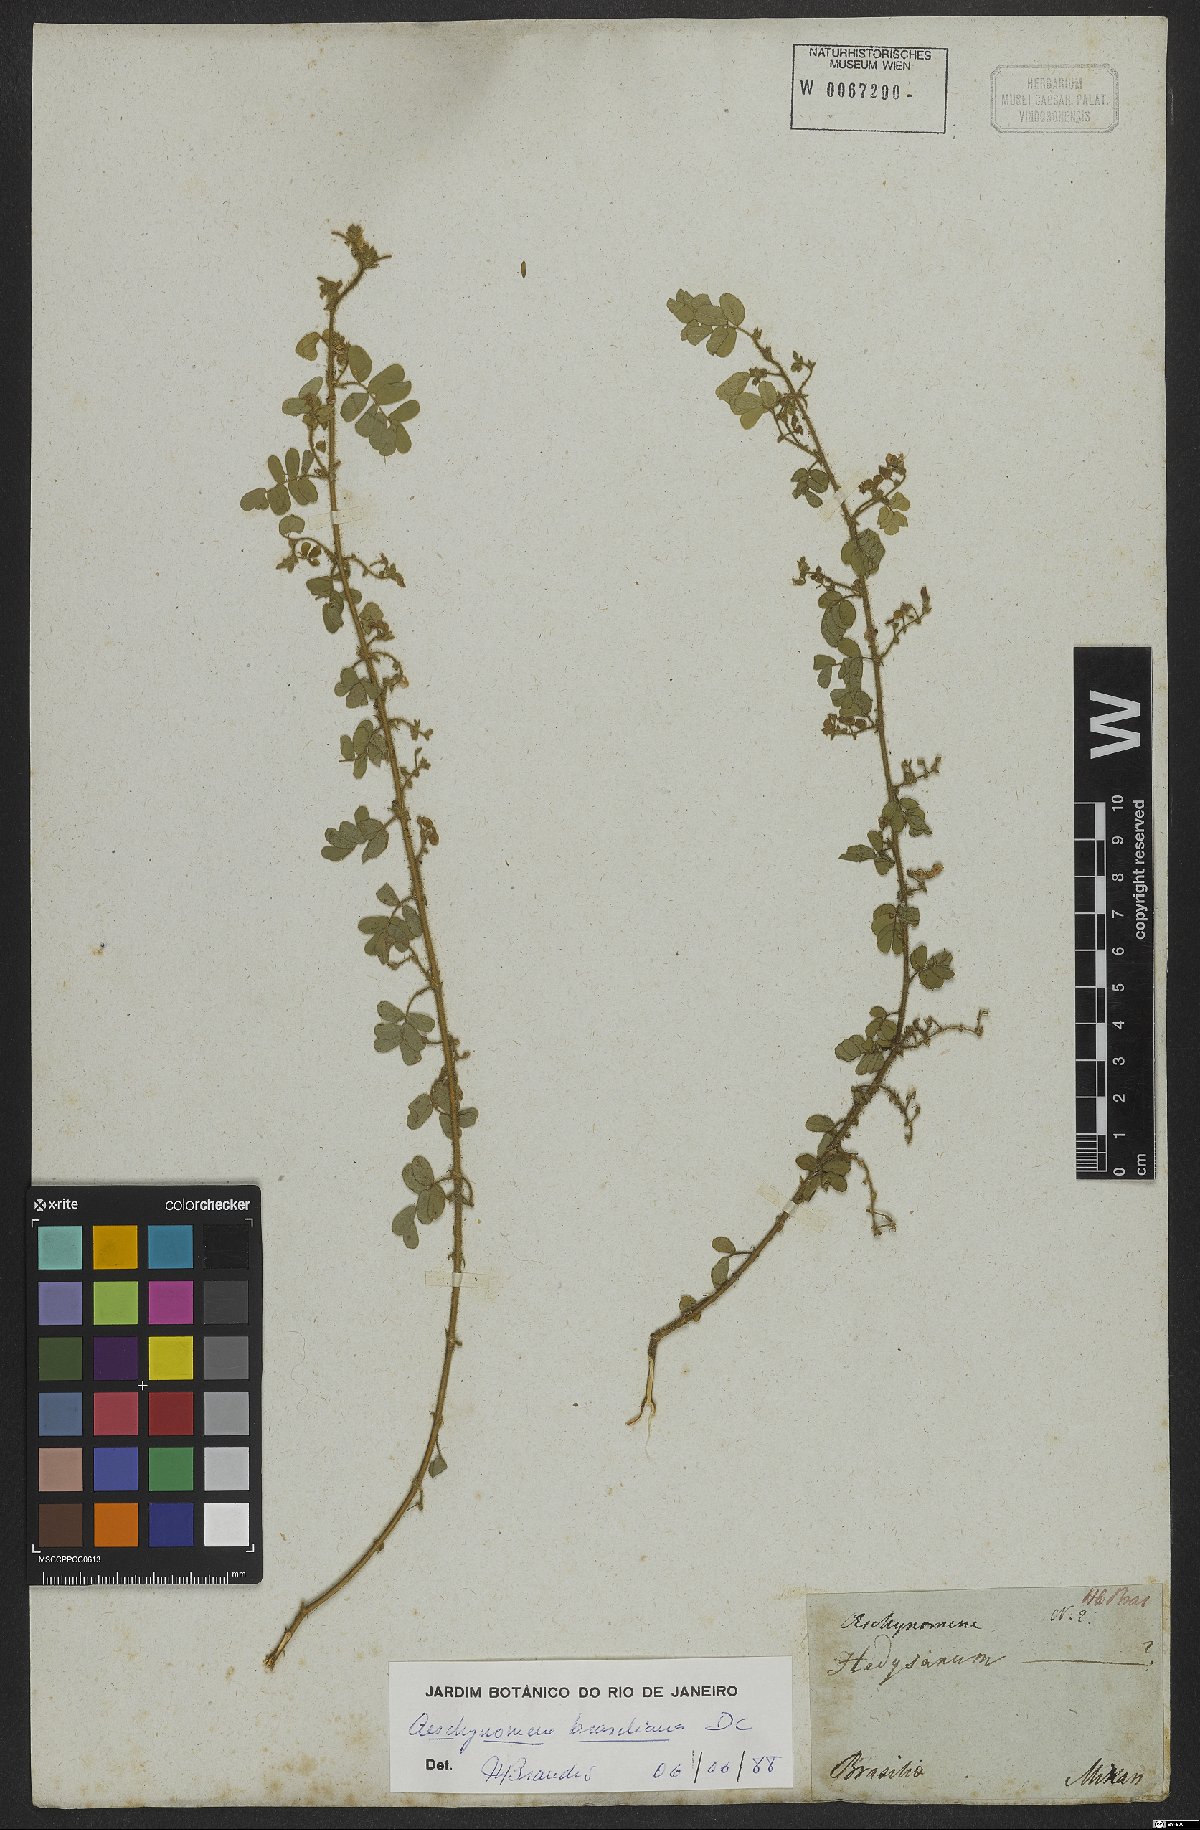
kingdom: Plantae
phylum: Tracheophyta
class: Magnoliopsida
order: Fabales
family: Fabaceae
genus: Ctenodon
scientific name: Ctenodon brasilianus
